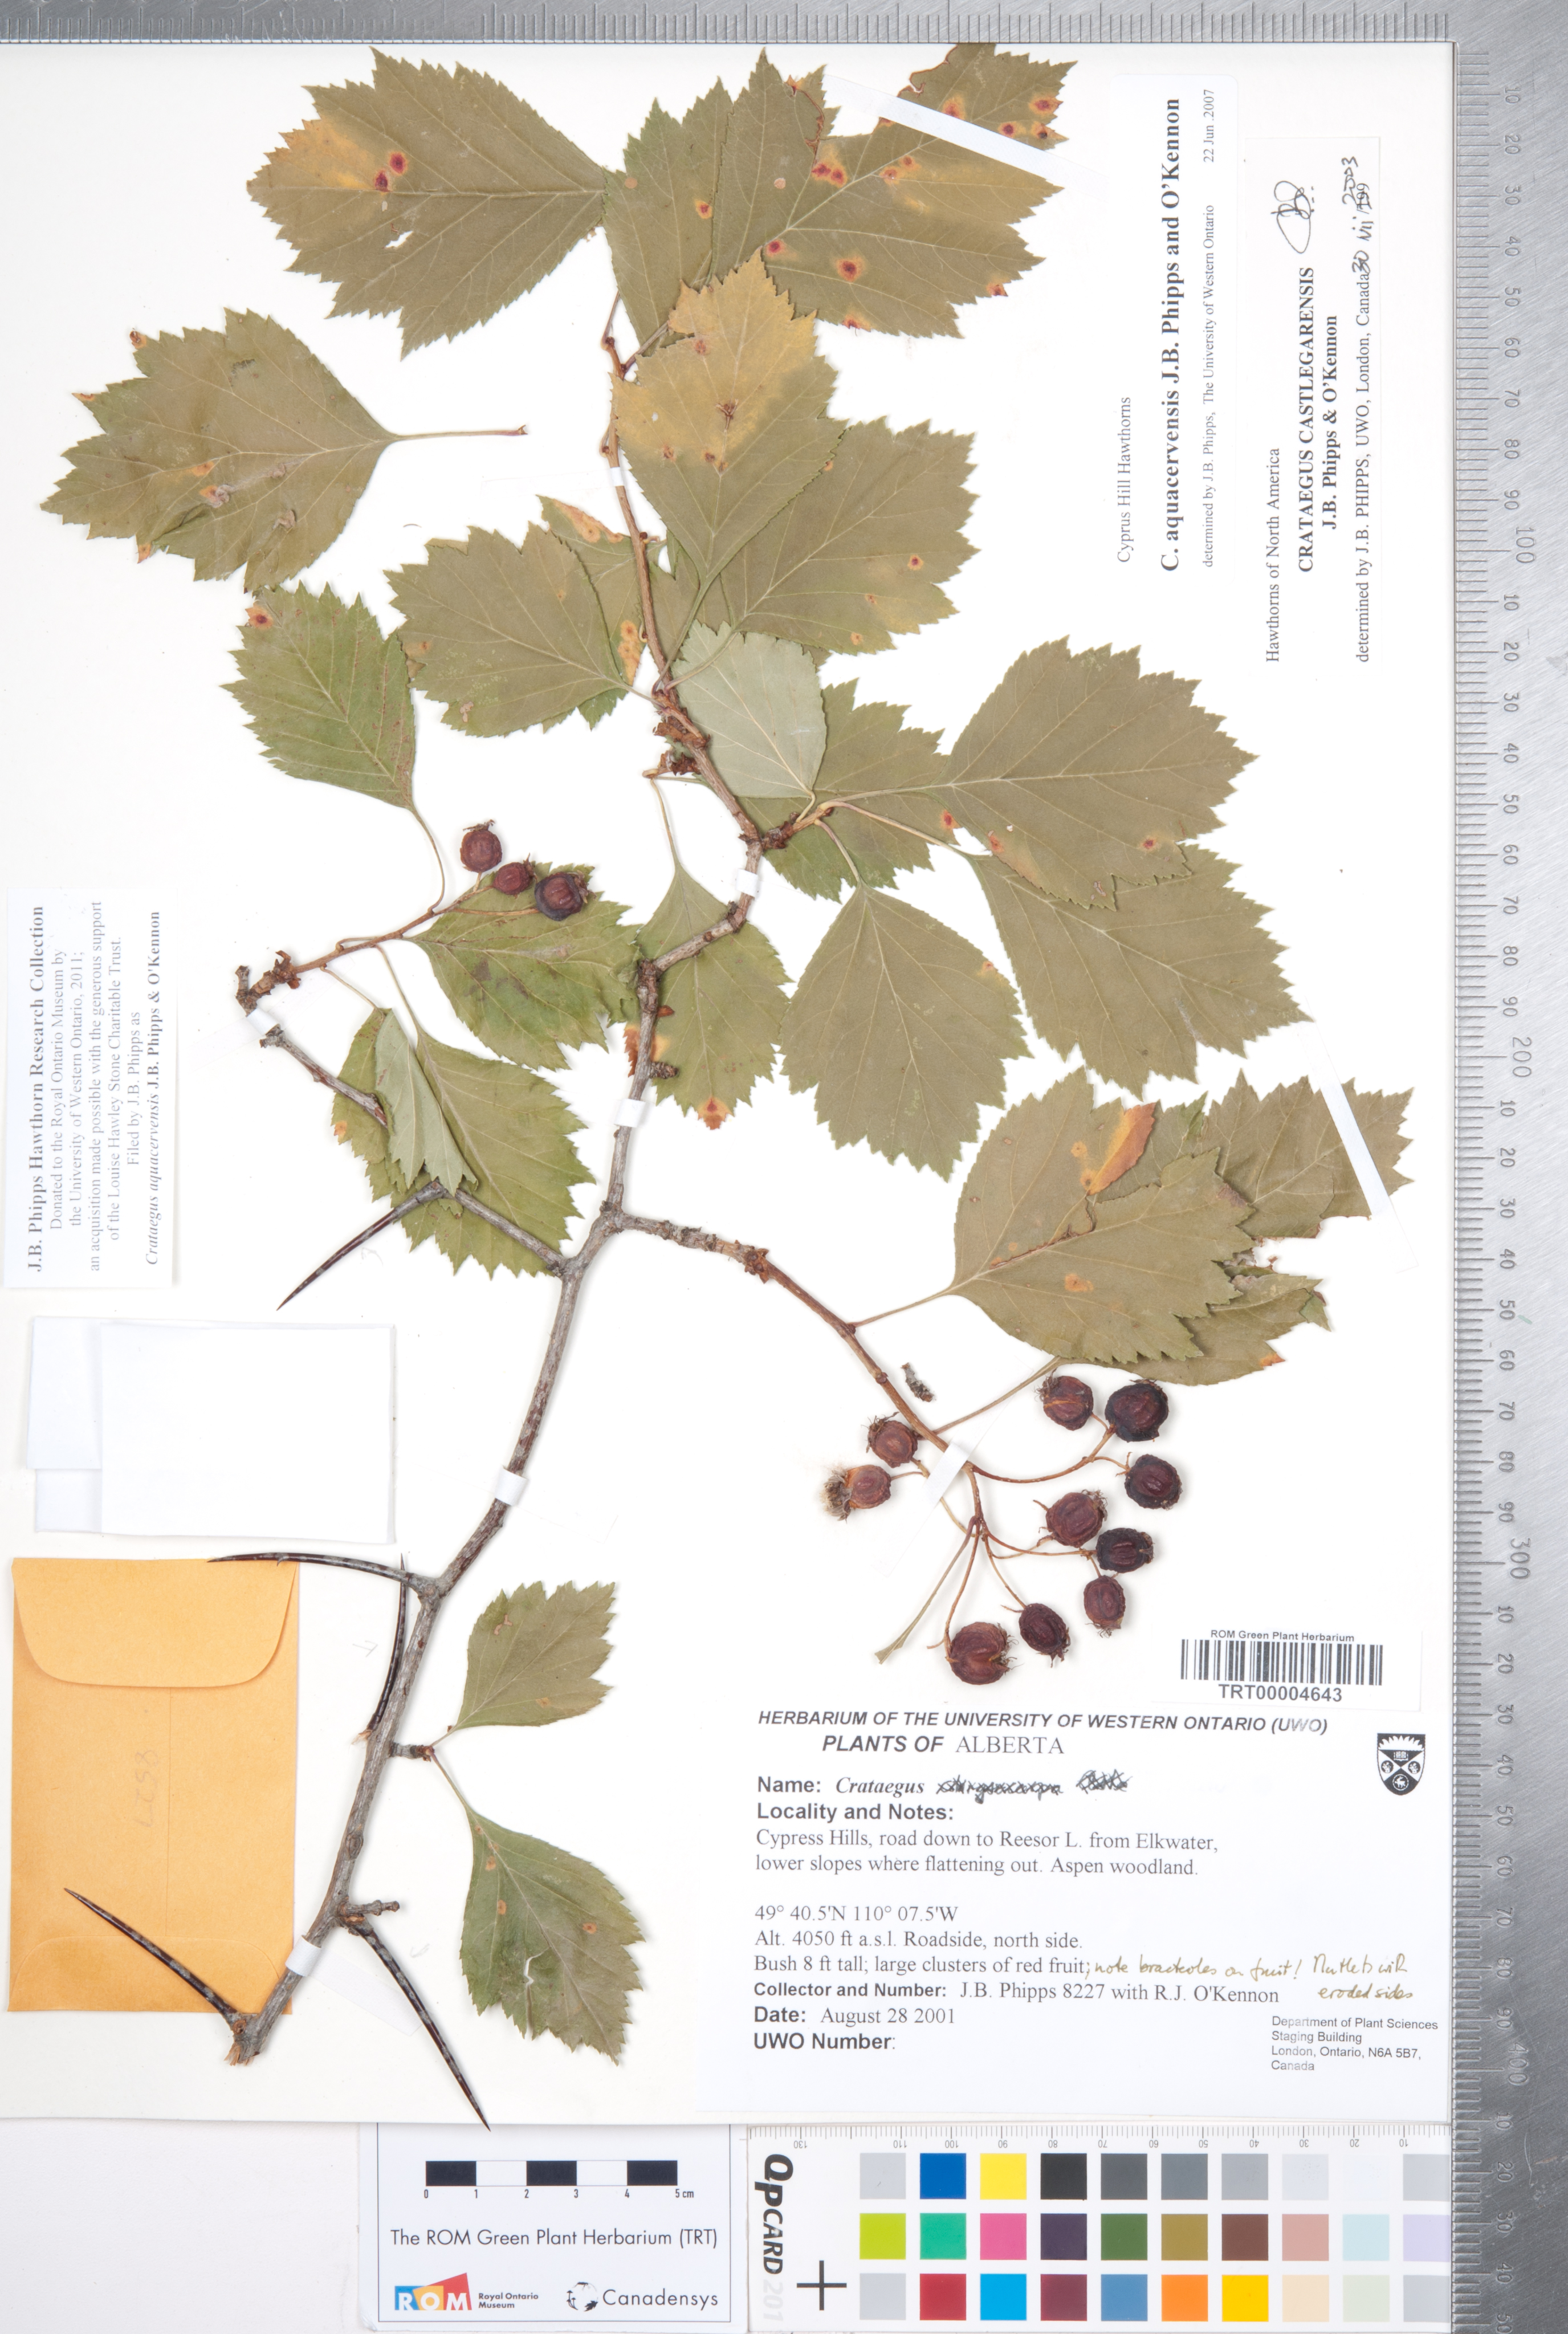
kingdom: Plantae
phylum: Tracheophyta
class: Magnoliopsida
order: Rosales
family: Rosaceae
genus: Crataegus
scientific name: Crataegus aquacervensis
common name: Elkwater hawthorn
